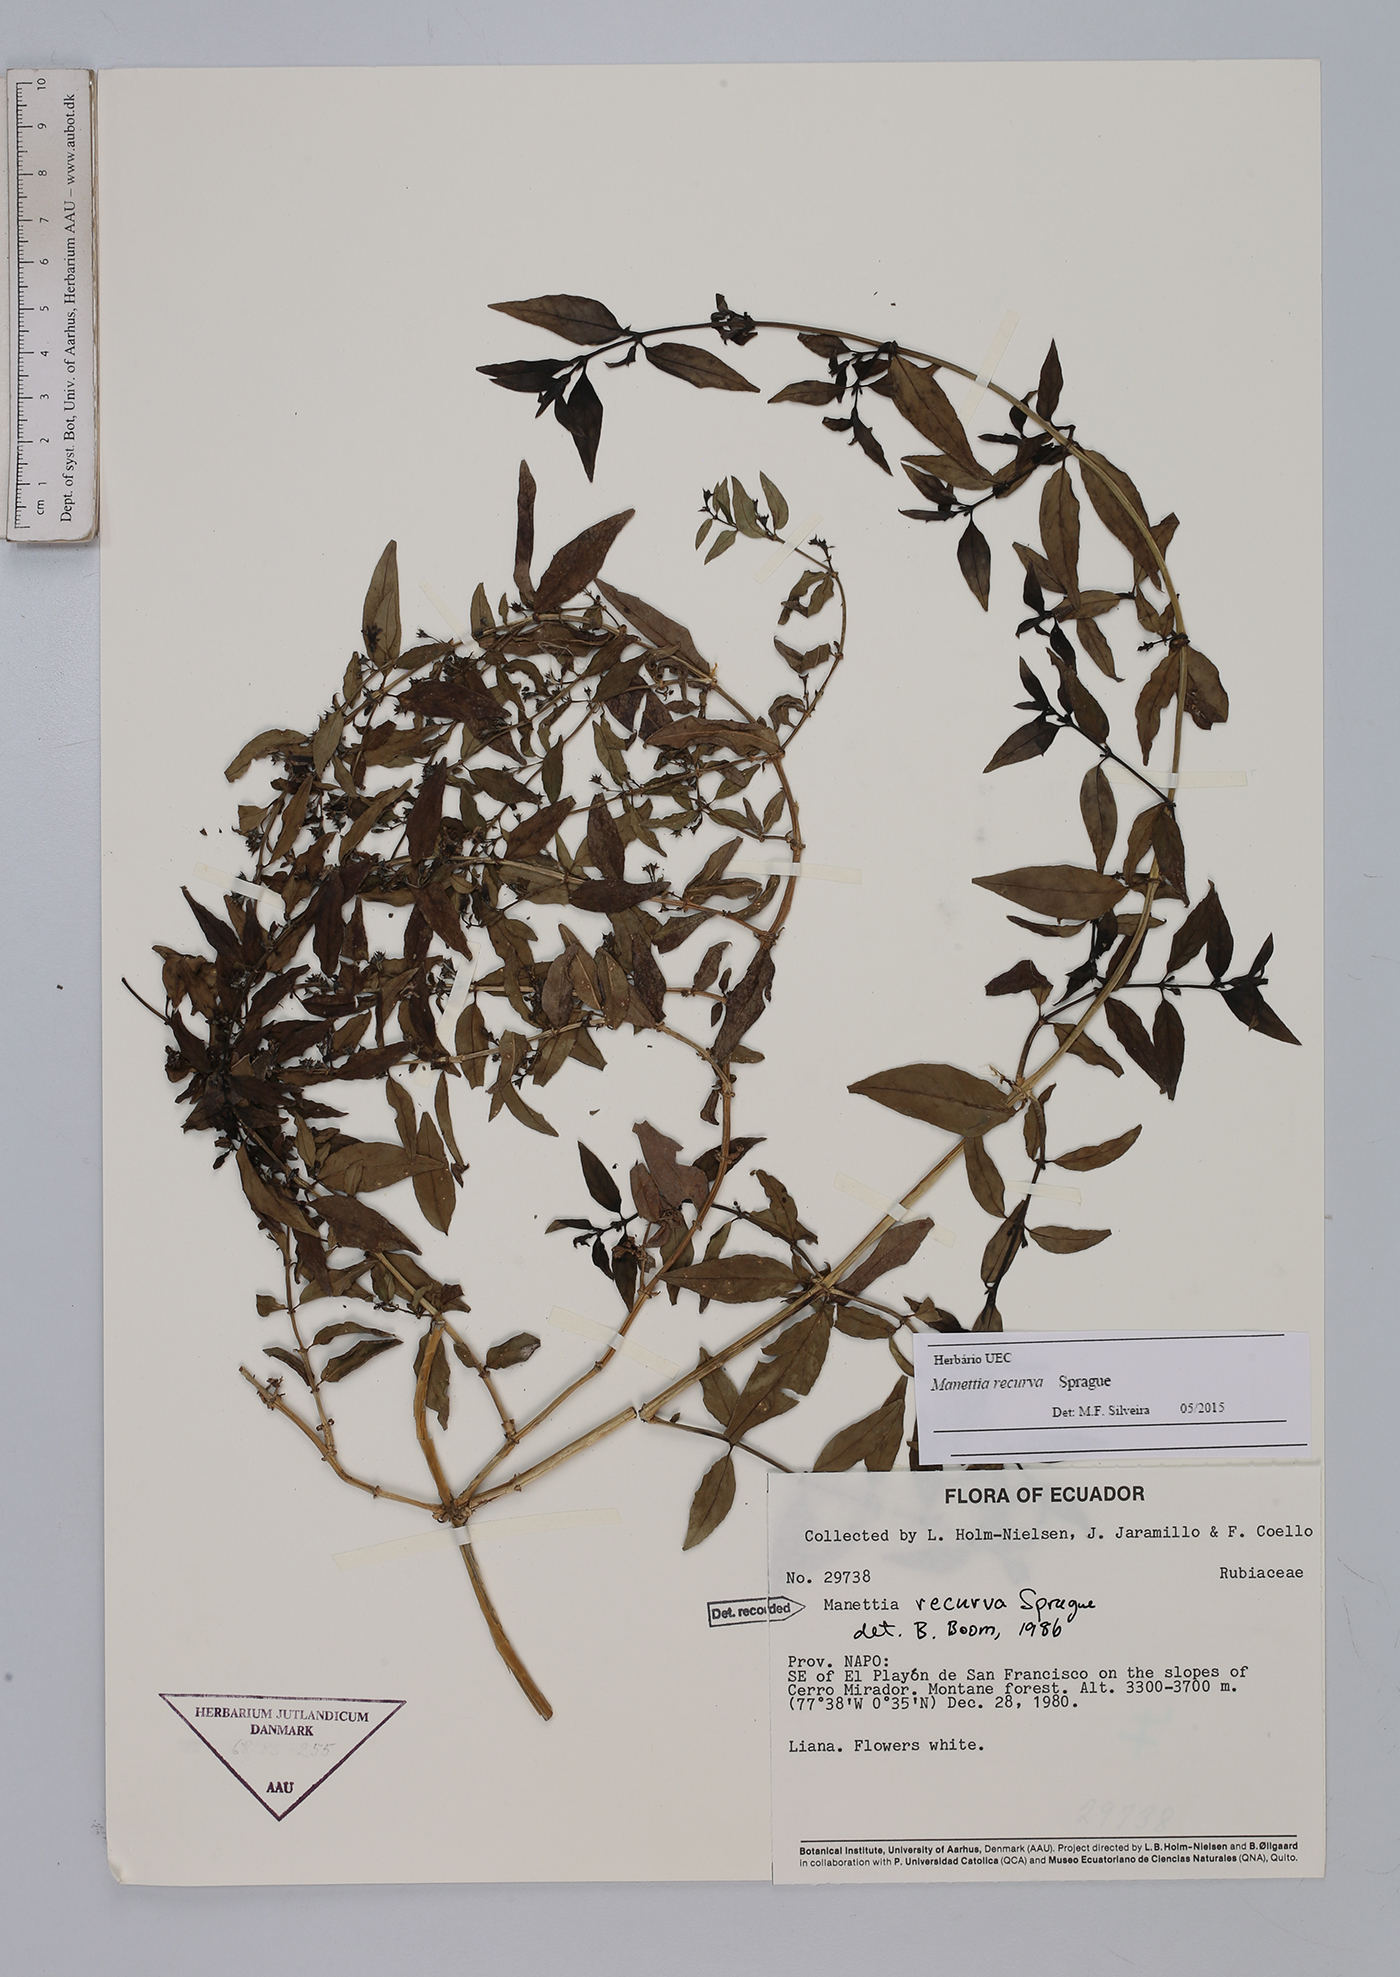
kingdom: Plantae
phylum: Tracheophyta
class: Magnoliopsida
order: Gentianales
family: Rubiaceae
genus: Manettia
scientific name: Manettia recurva
